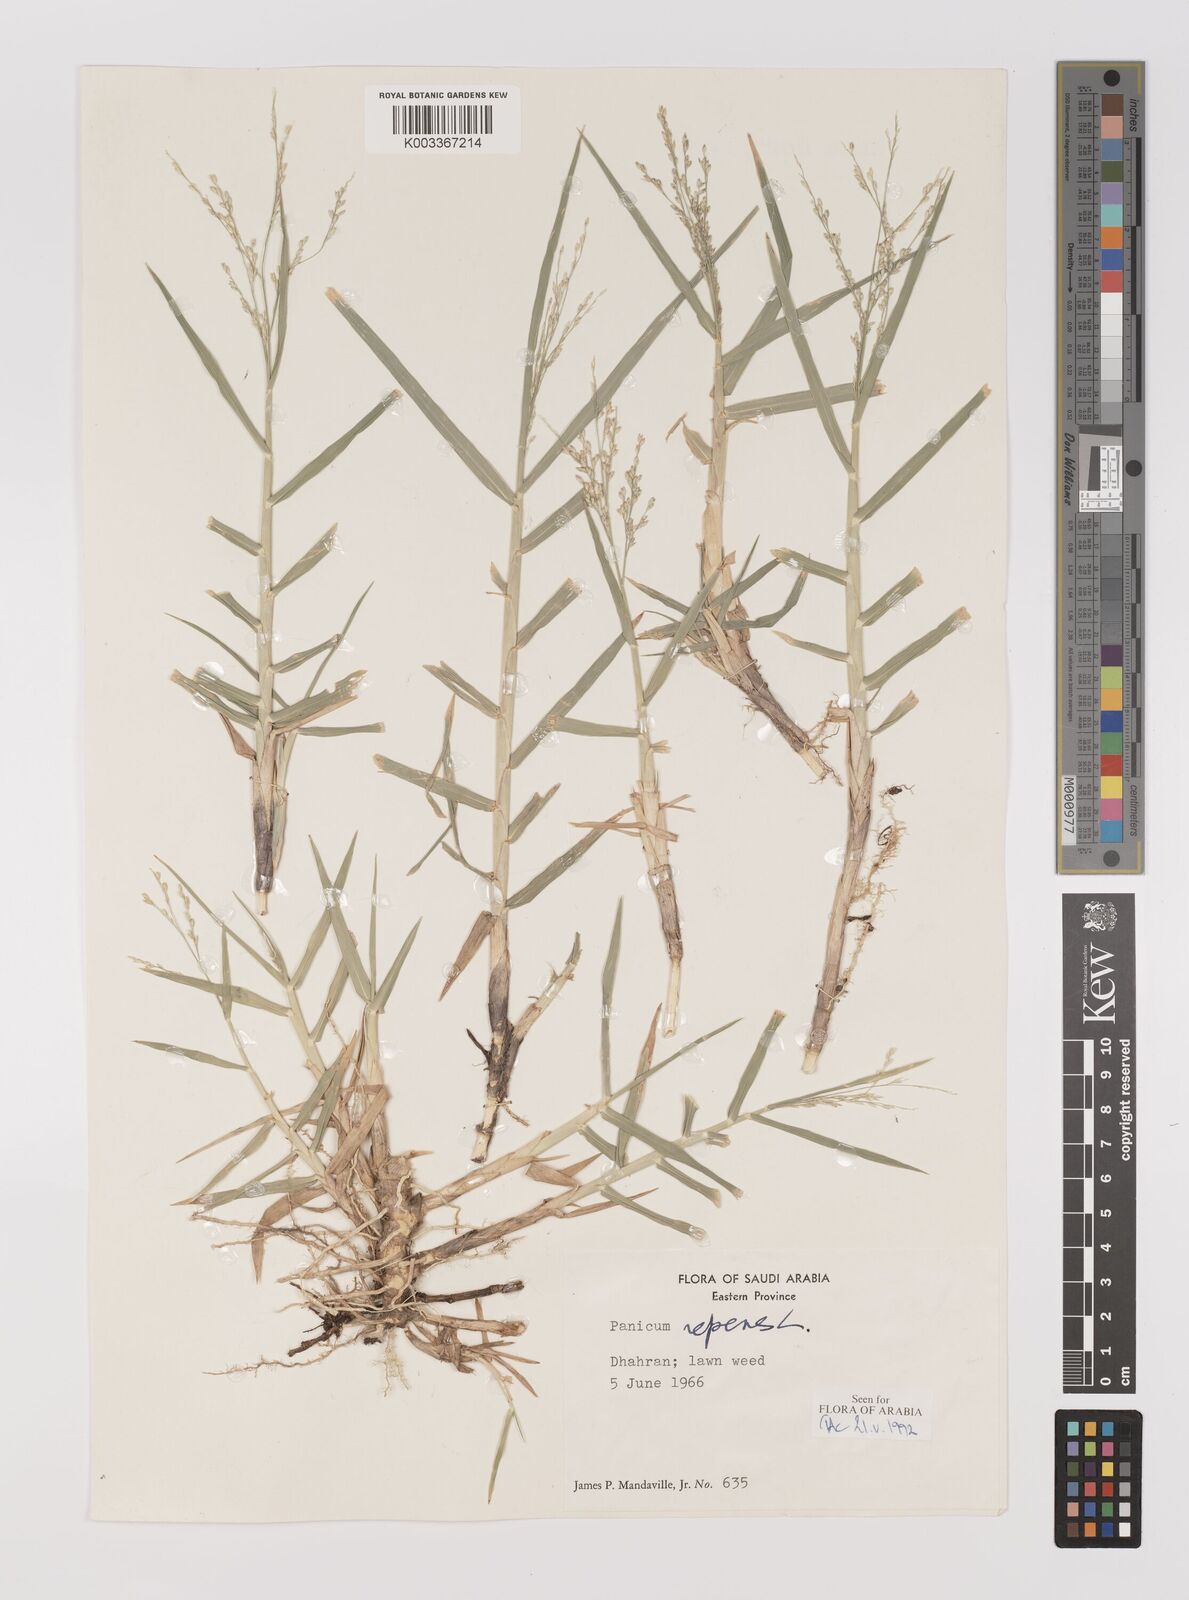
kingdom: Plantae
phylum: Tracheophyta
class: Liliopsida
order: Poales
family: Poaceae
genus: Panicum
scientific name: Panicum repens
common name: Torpedo grass
